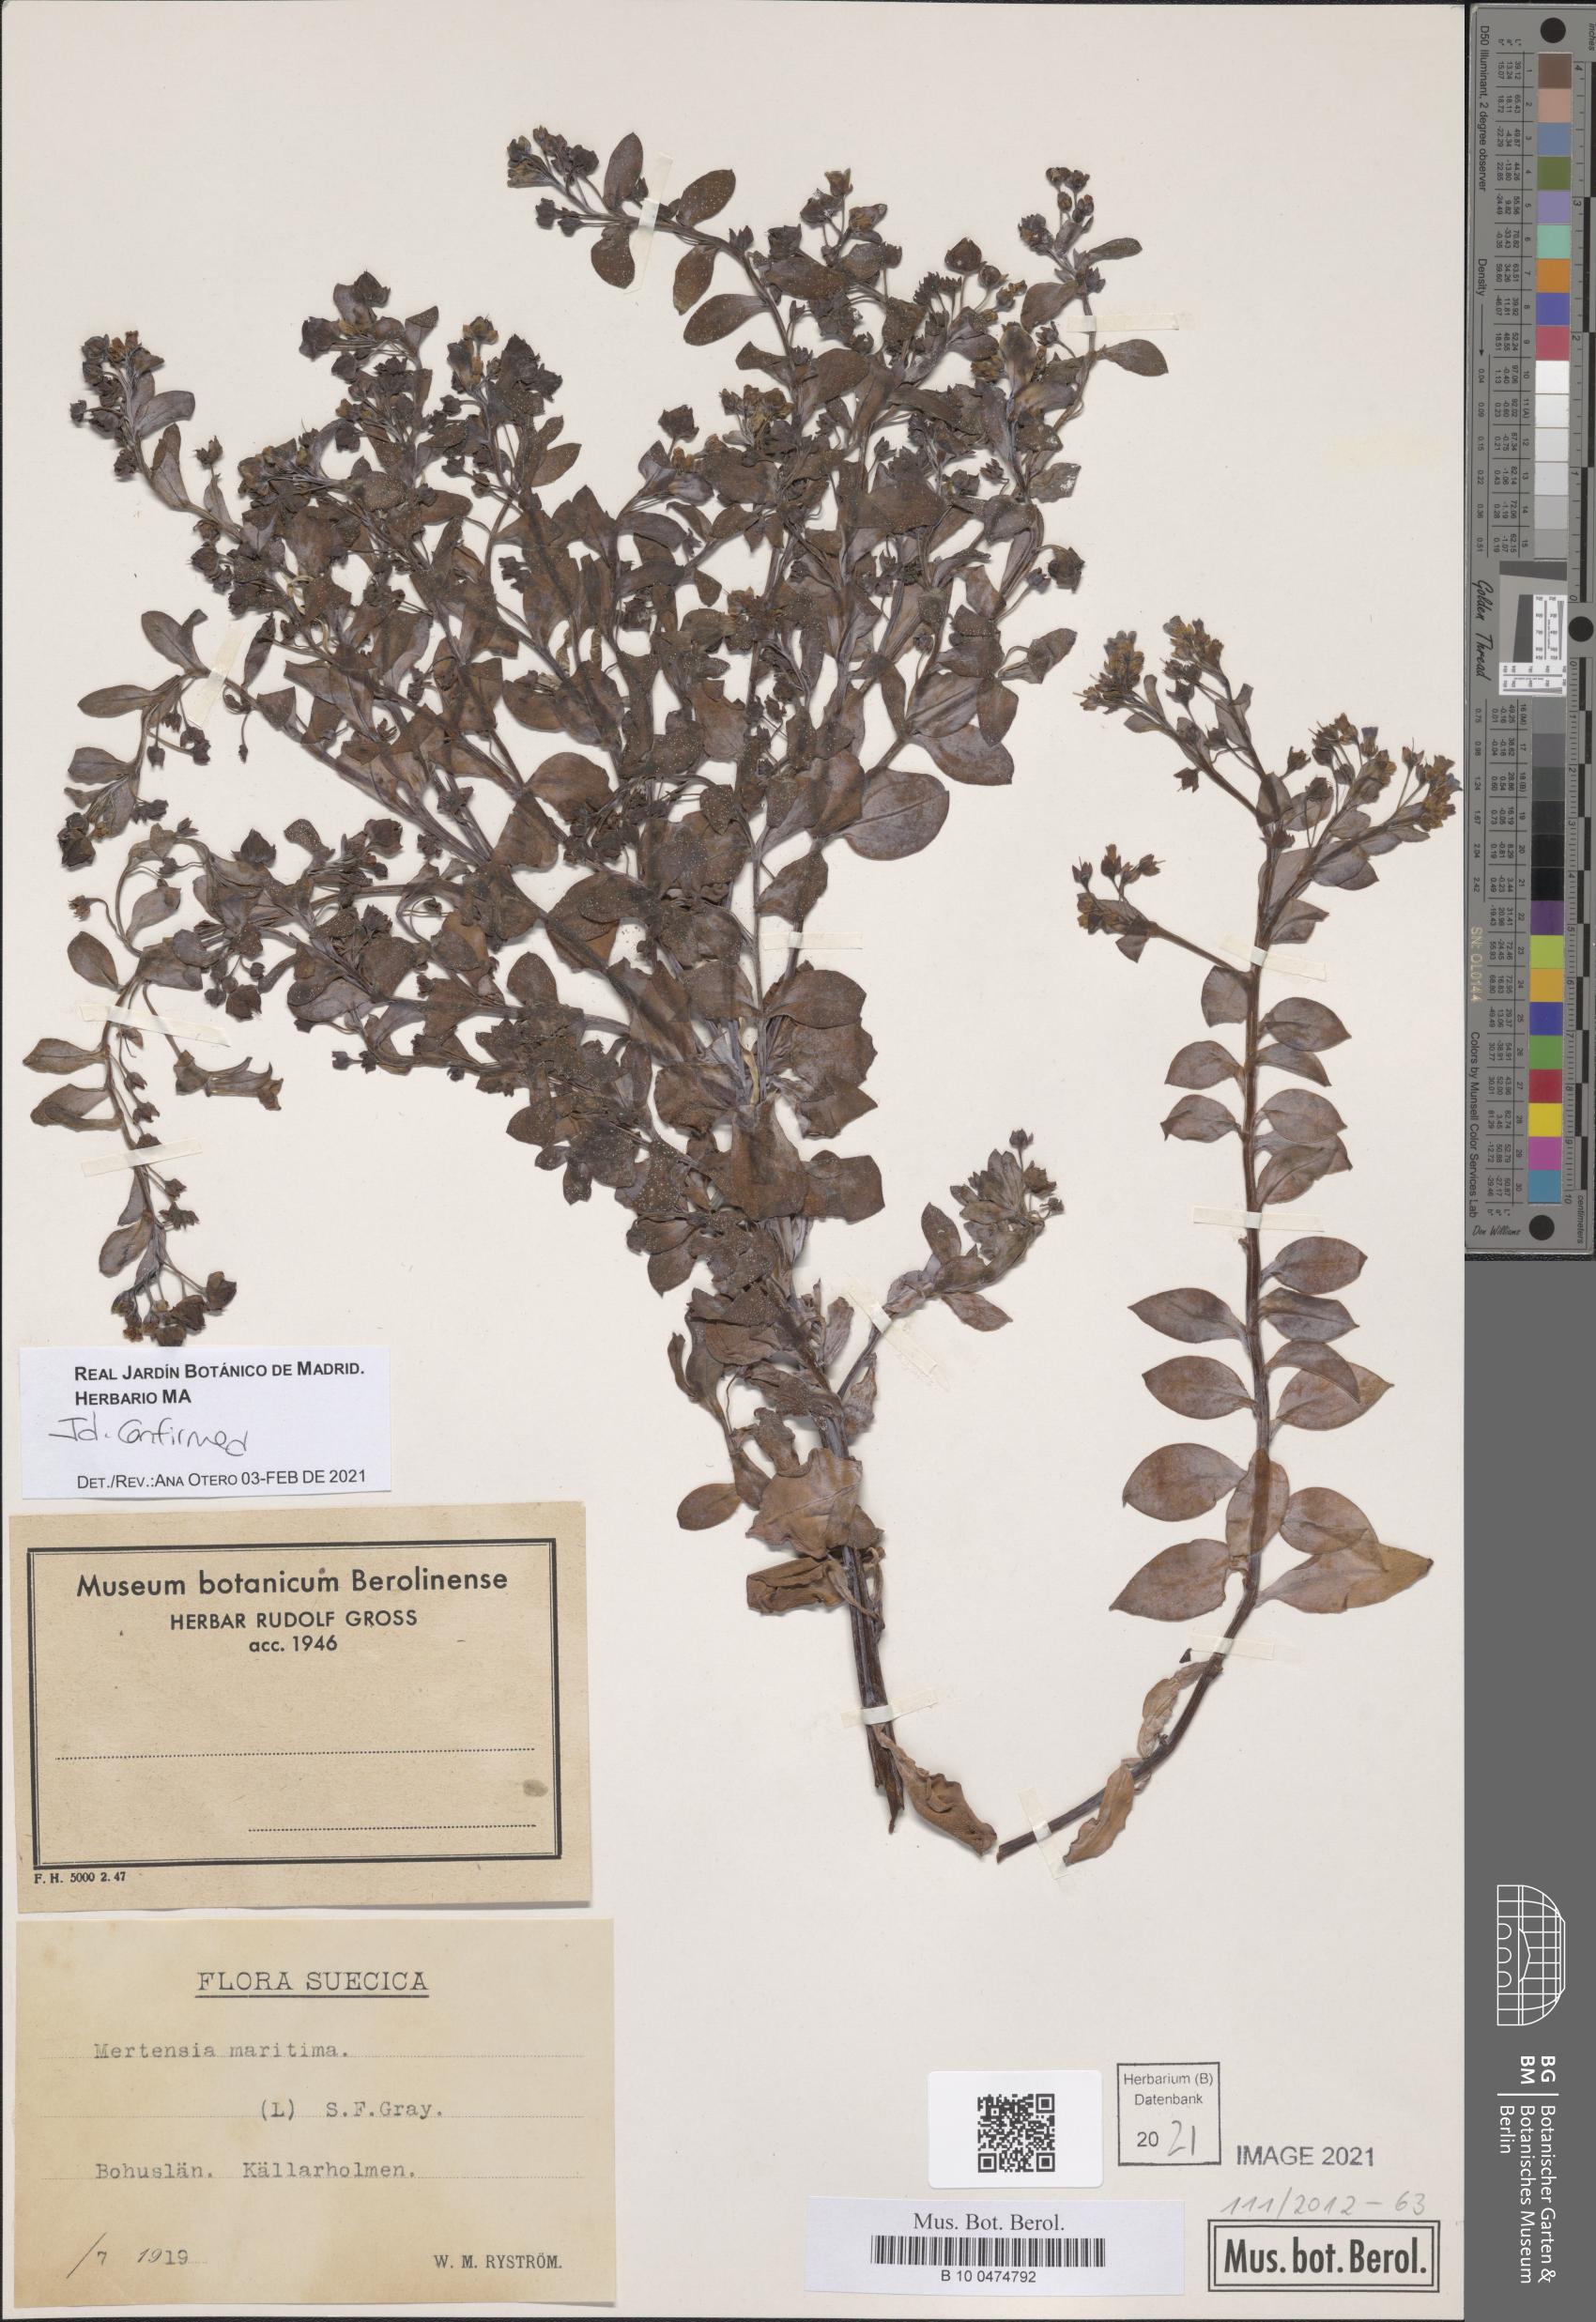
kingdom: Plantae
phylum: Tracheophyta
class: Magnoliopsida
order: Boraginales
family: Boraginaceae
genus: Mertensia
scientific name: Mertensia maritima
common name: Oysterplant
